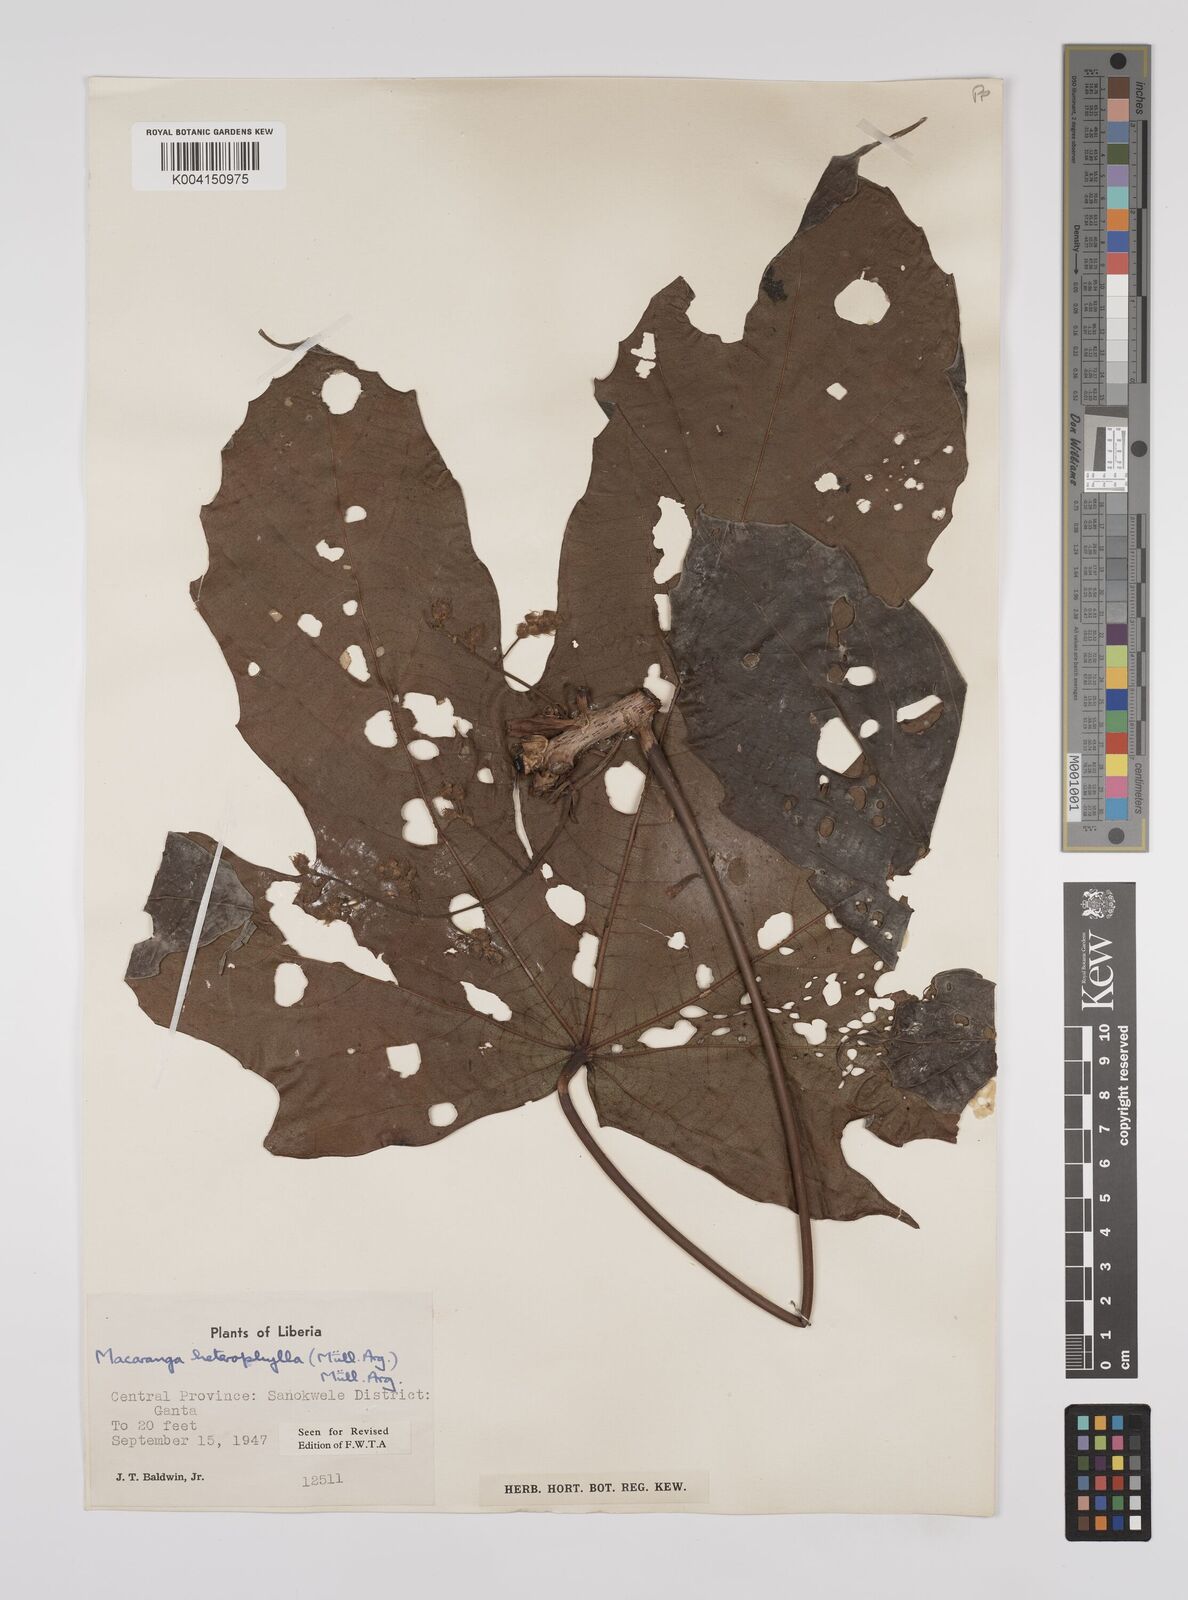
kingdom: Plantae
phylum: Tracheophyta
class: Magnoliopsida
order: Malpighiales
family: Euphorbiaceae
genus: Macaranga
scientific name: Macaranga heterophylla
